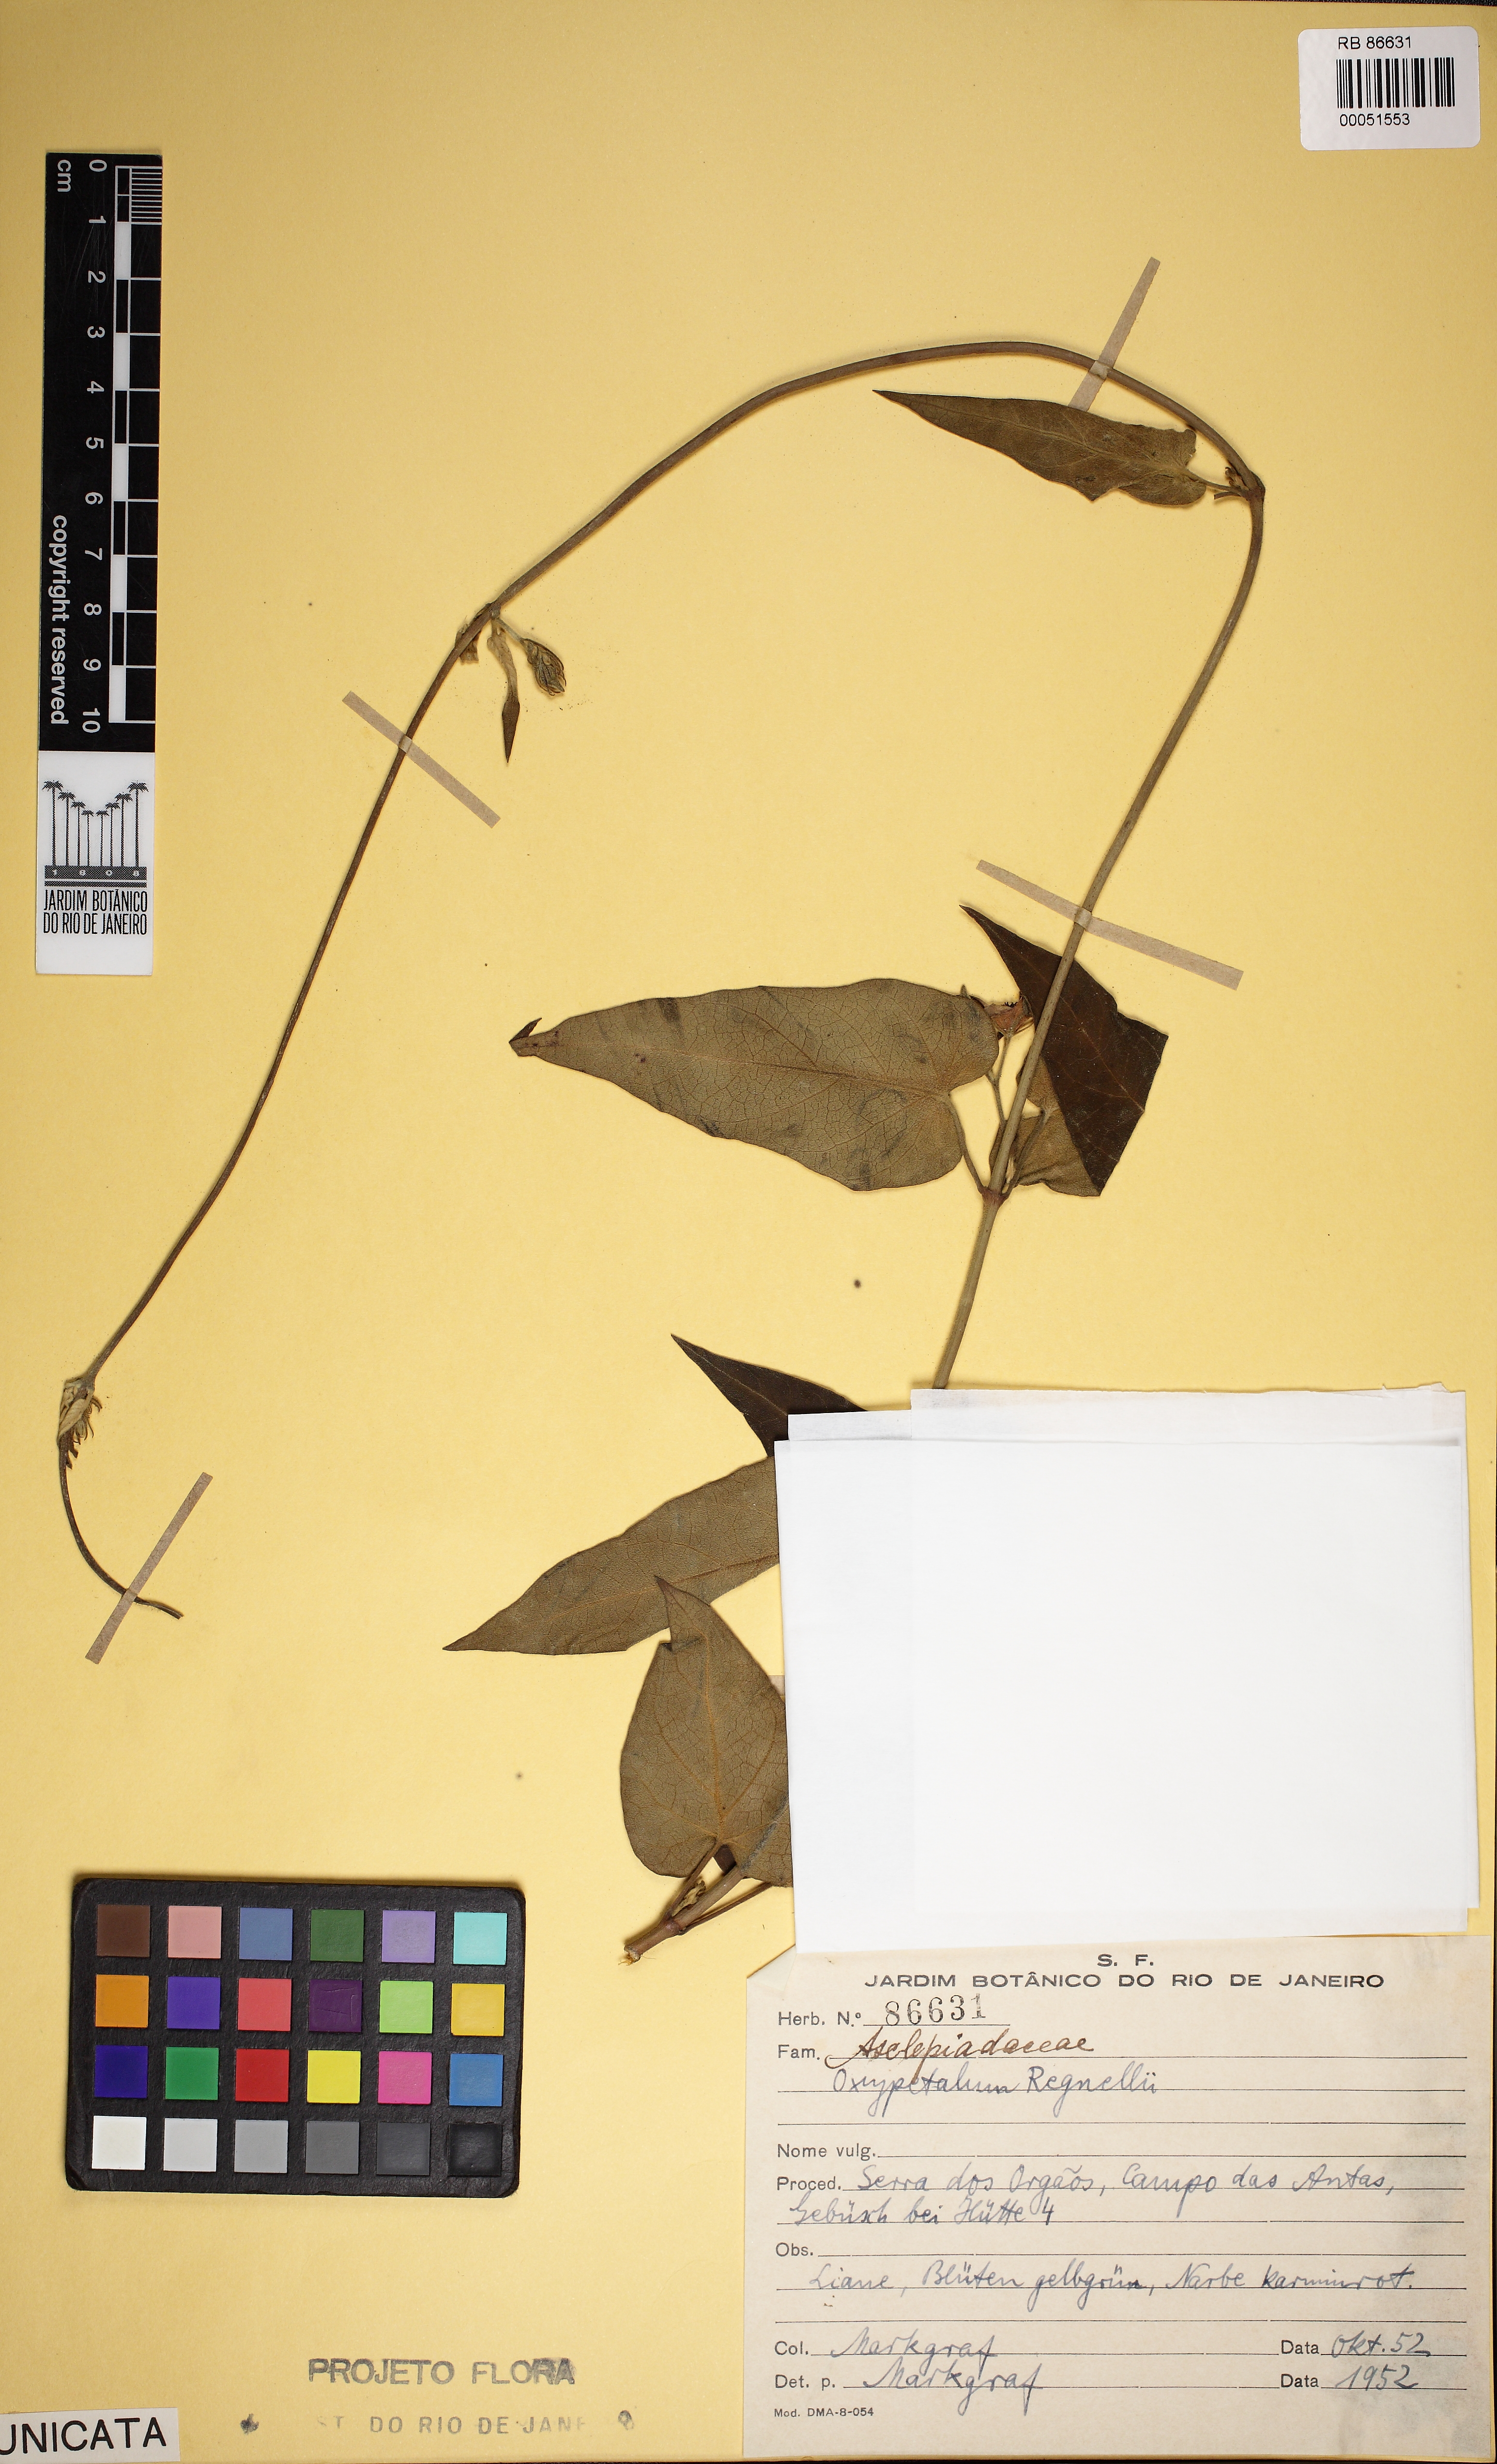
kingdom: Plantae
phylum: Tracheophyta
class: Magnoliopsida
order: Gentianales
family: Apocynaceae
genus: Oxypetalum
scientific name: Oxypetalum regnellii
